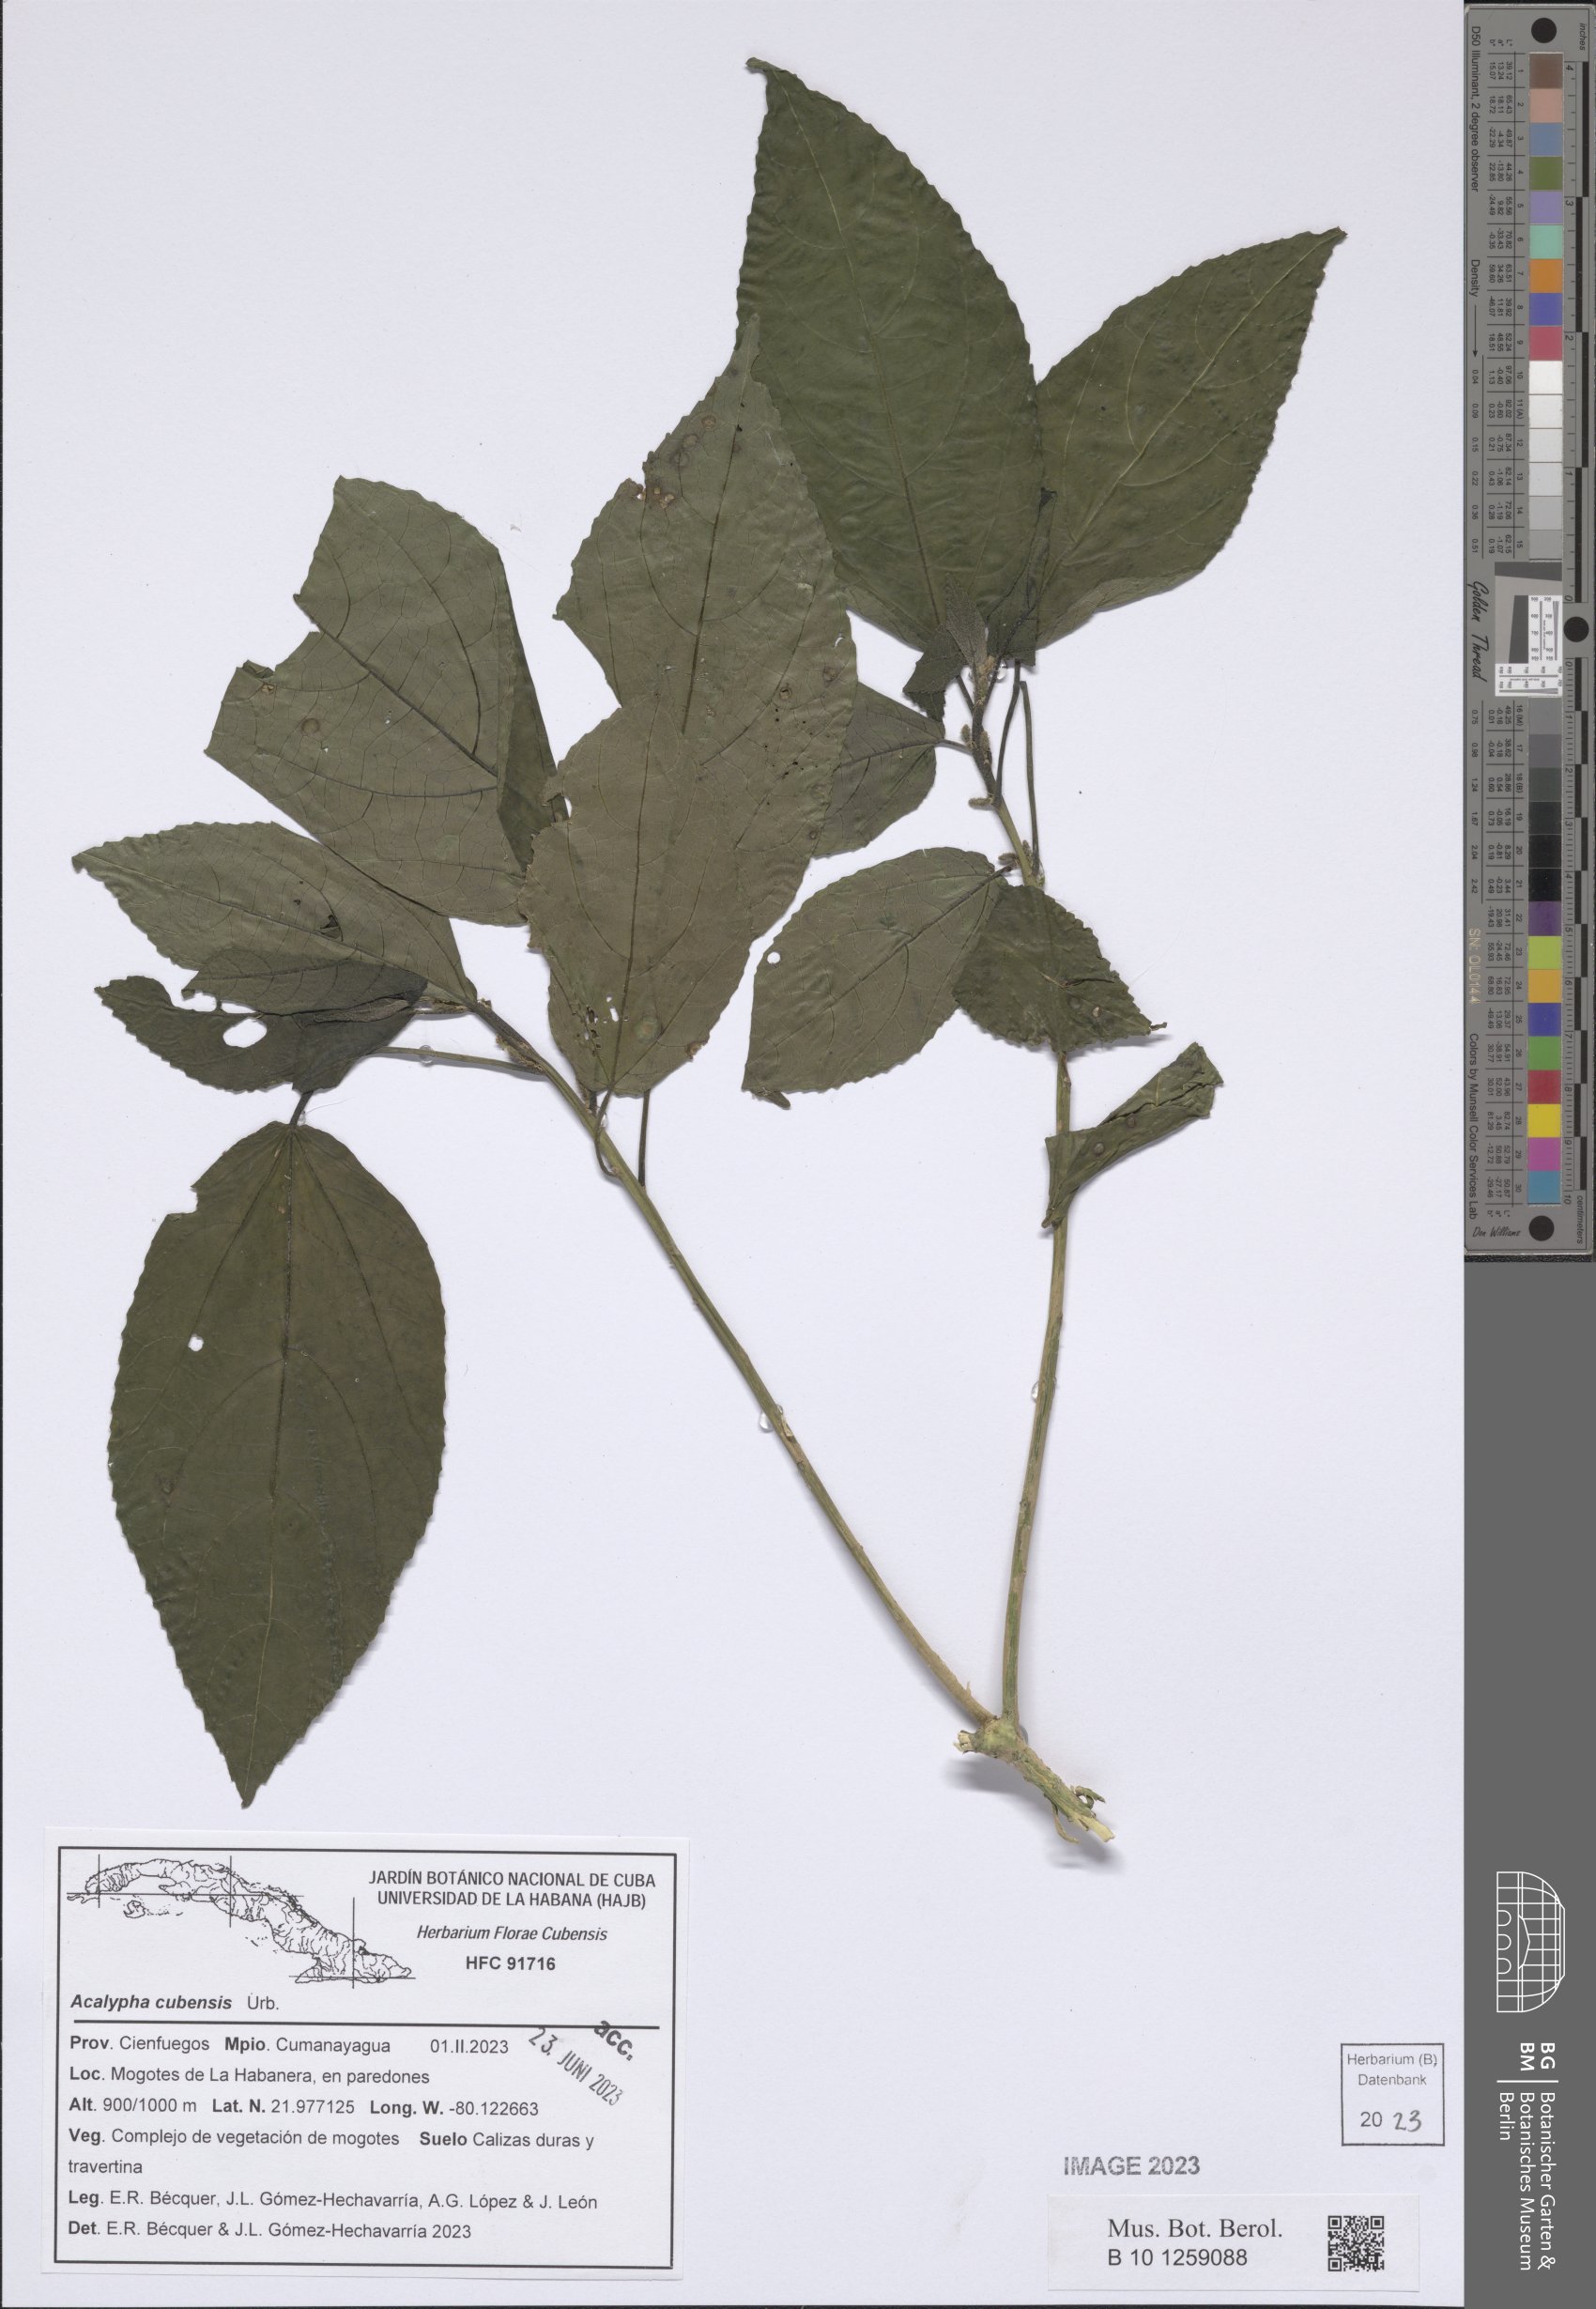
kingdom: Plantae
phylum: Tracheophyta
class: Magnoliopsida
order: Malpighiales
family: Euphorbiaceae
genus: Acalypha
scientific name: Acalypha cubensis
